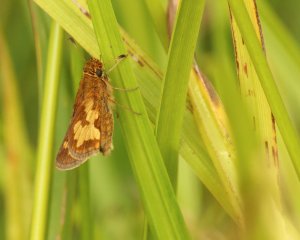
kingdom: Animalia
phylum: Arthropoda
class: Insecta
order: Lepidoptera
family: Hesperiidae
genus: Polites
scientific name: Polites coras
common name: Peck's Skipper
